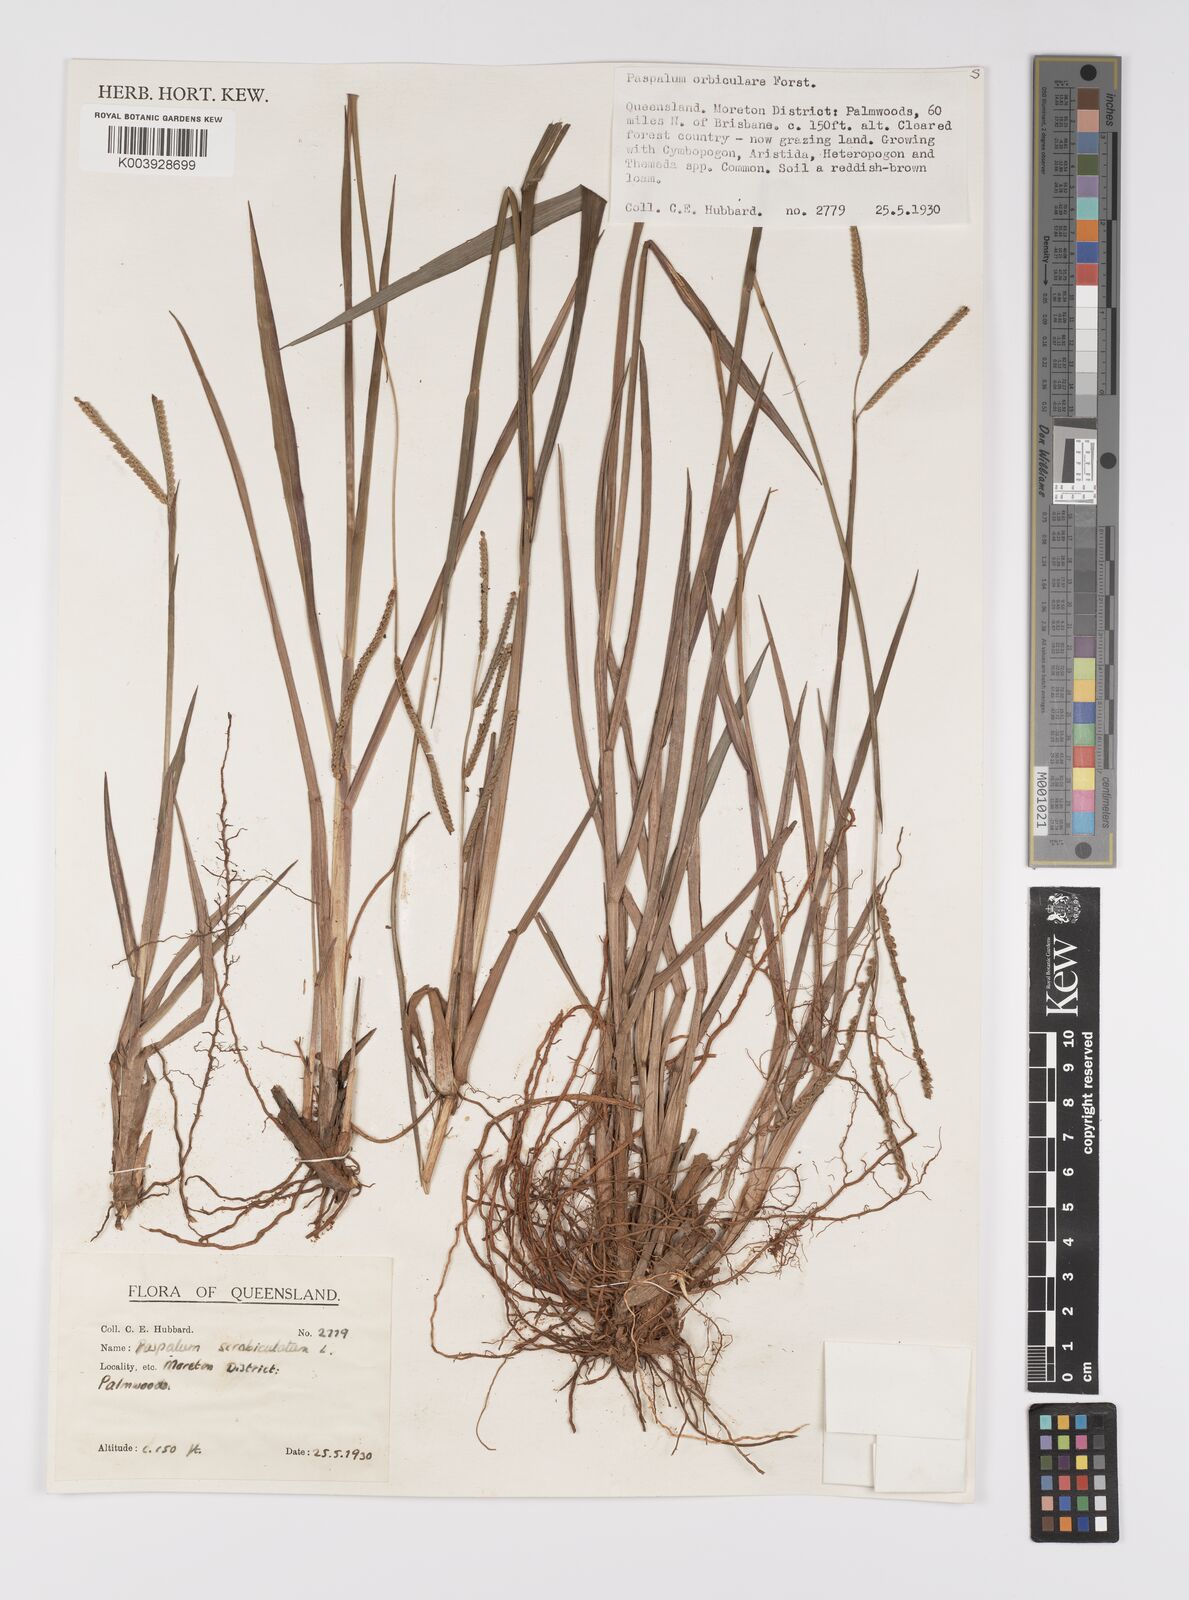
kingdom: Plantae
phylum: Tracheophyta
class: Liliopsida
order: Poales
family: Poaceae
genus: Paspalum
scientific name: Paspalum scrobiculatum
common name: Kodo millet
